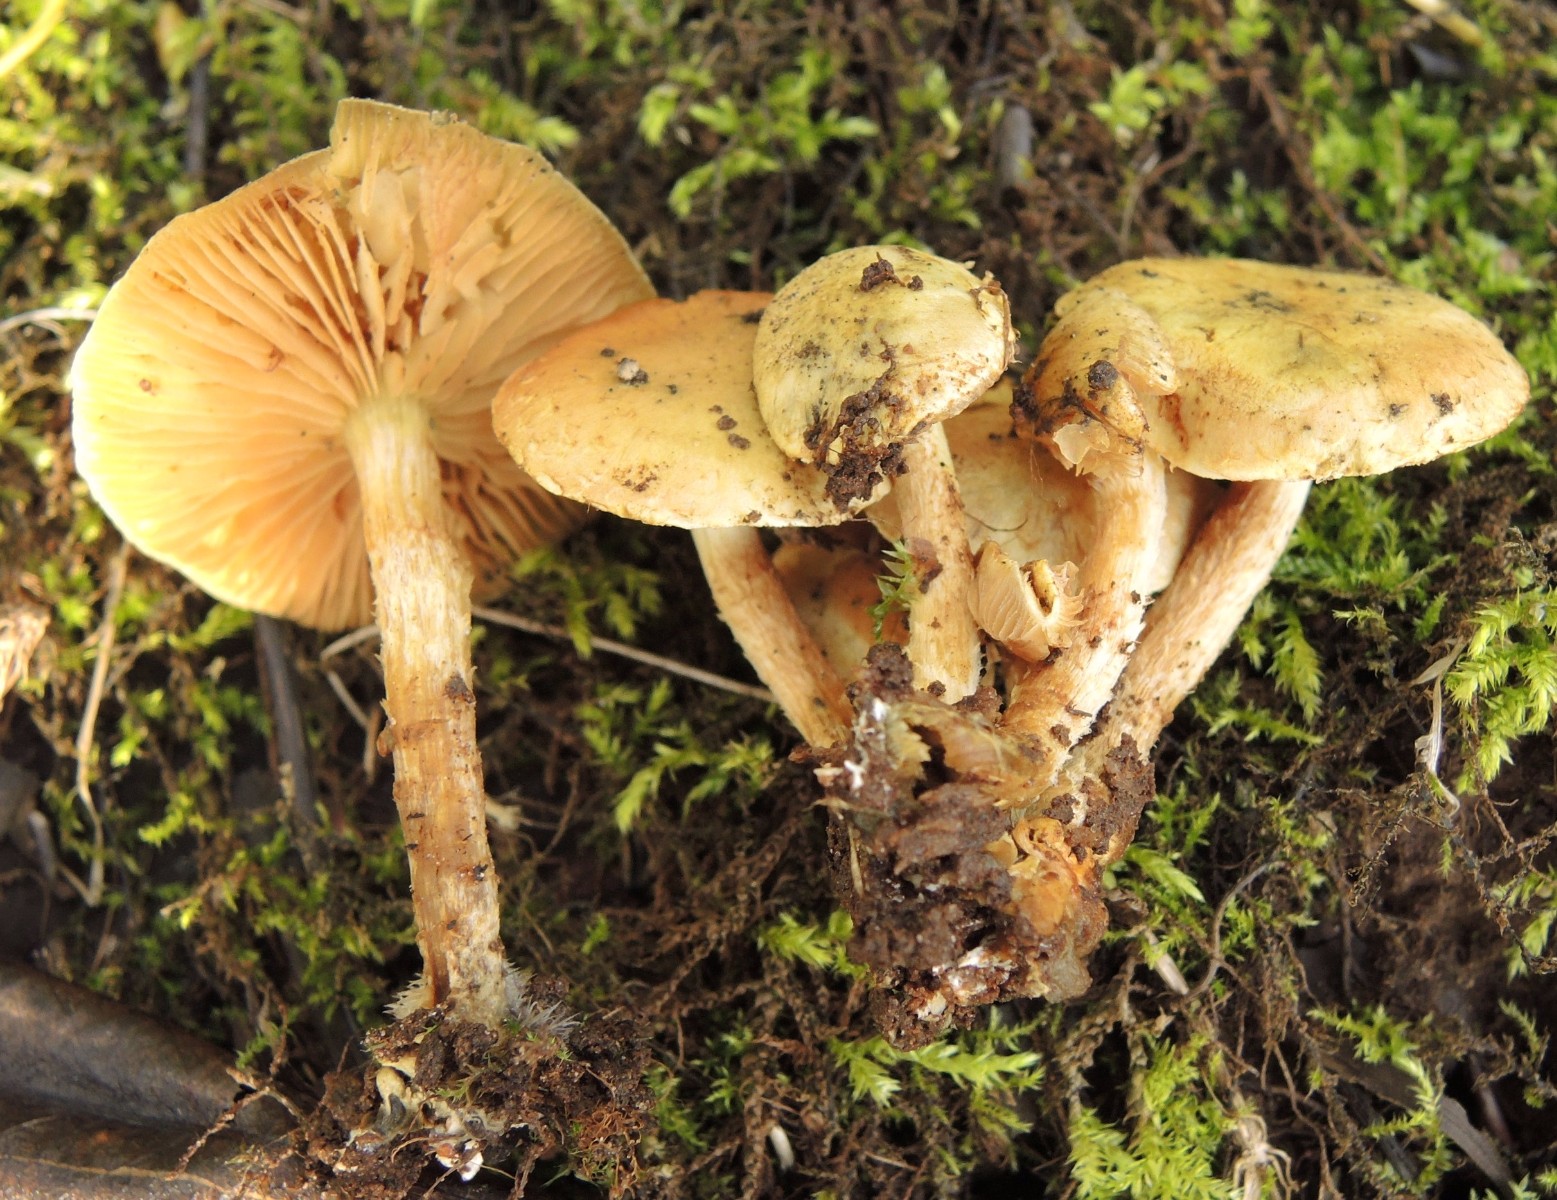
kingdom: Fungi
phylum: Basidiomycota
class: Agaricomycetes
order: Agaricales
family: Strophariaceae
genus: Pholiota
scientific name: Pholiota gummosa
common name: grøngul skælhat
